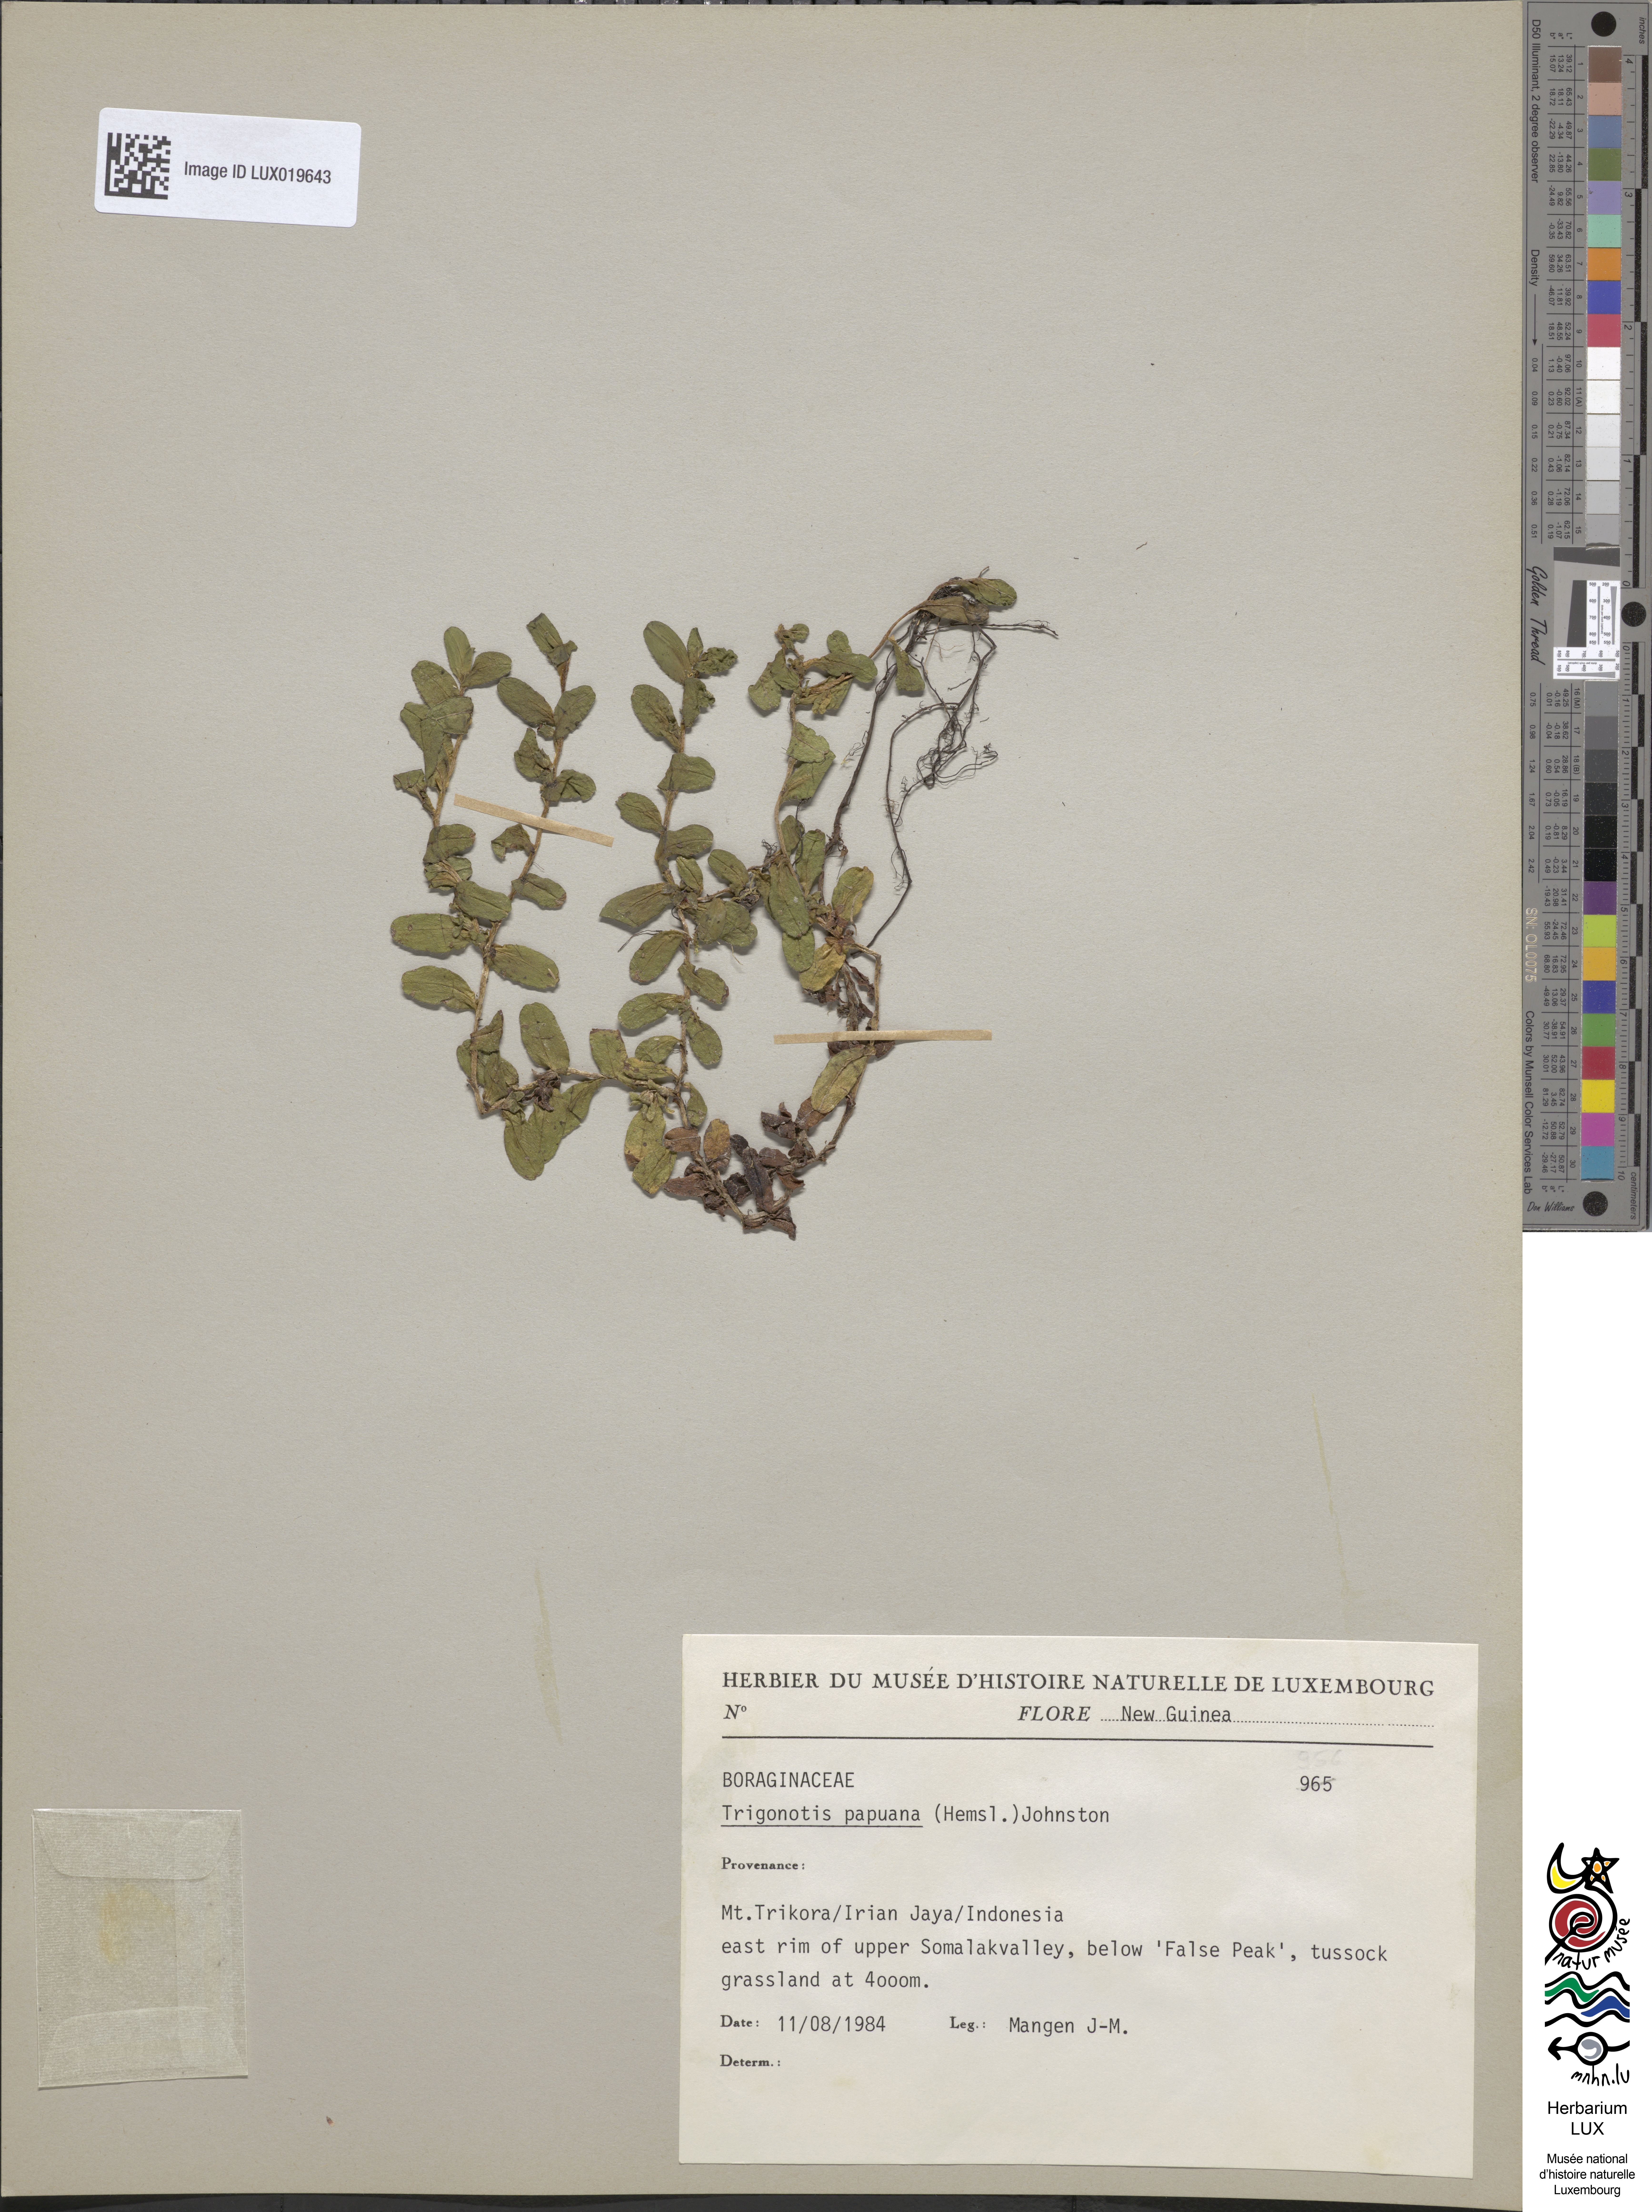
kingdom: Plantae
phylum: Tracheophyta
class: Magnoliopsida
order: Boraginales
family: Boraginaceae
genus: Trigonotis
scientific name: Trigonotis papuana
